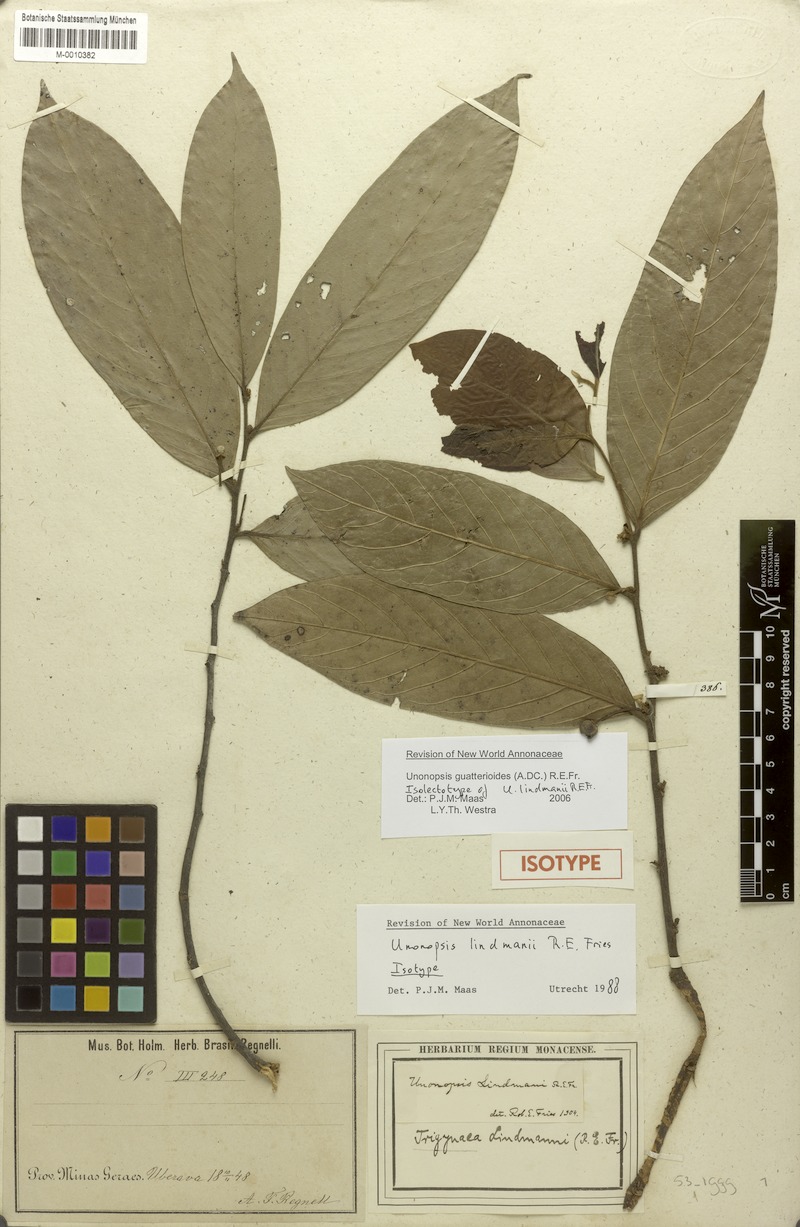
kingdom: Plantae
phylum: Tracheophyta
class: Magnoliopsida
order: Magnoliales
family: Annonaceae
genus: Unonopsis
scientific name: Unonopsis guatterioides
